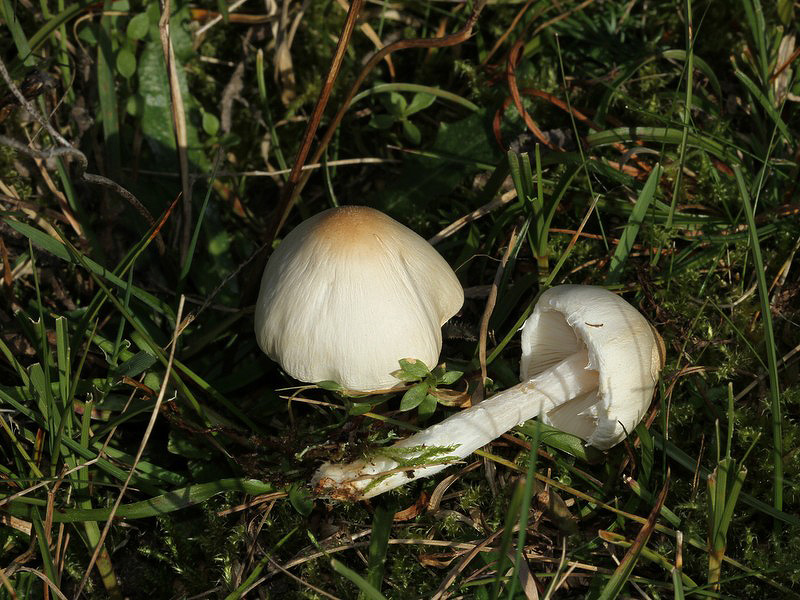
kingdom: Fungi
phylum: Basidiomycota
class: Agaricomycetes
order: Agaricales
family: Agaricaceae
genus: Lepiota
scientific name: Lepiota erminea
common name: hvid parasolhat
